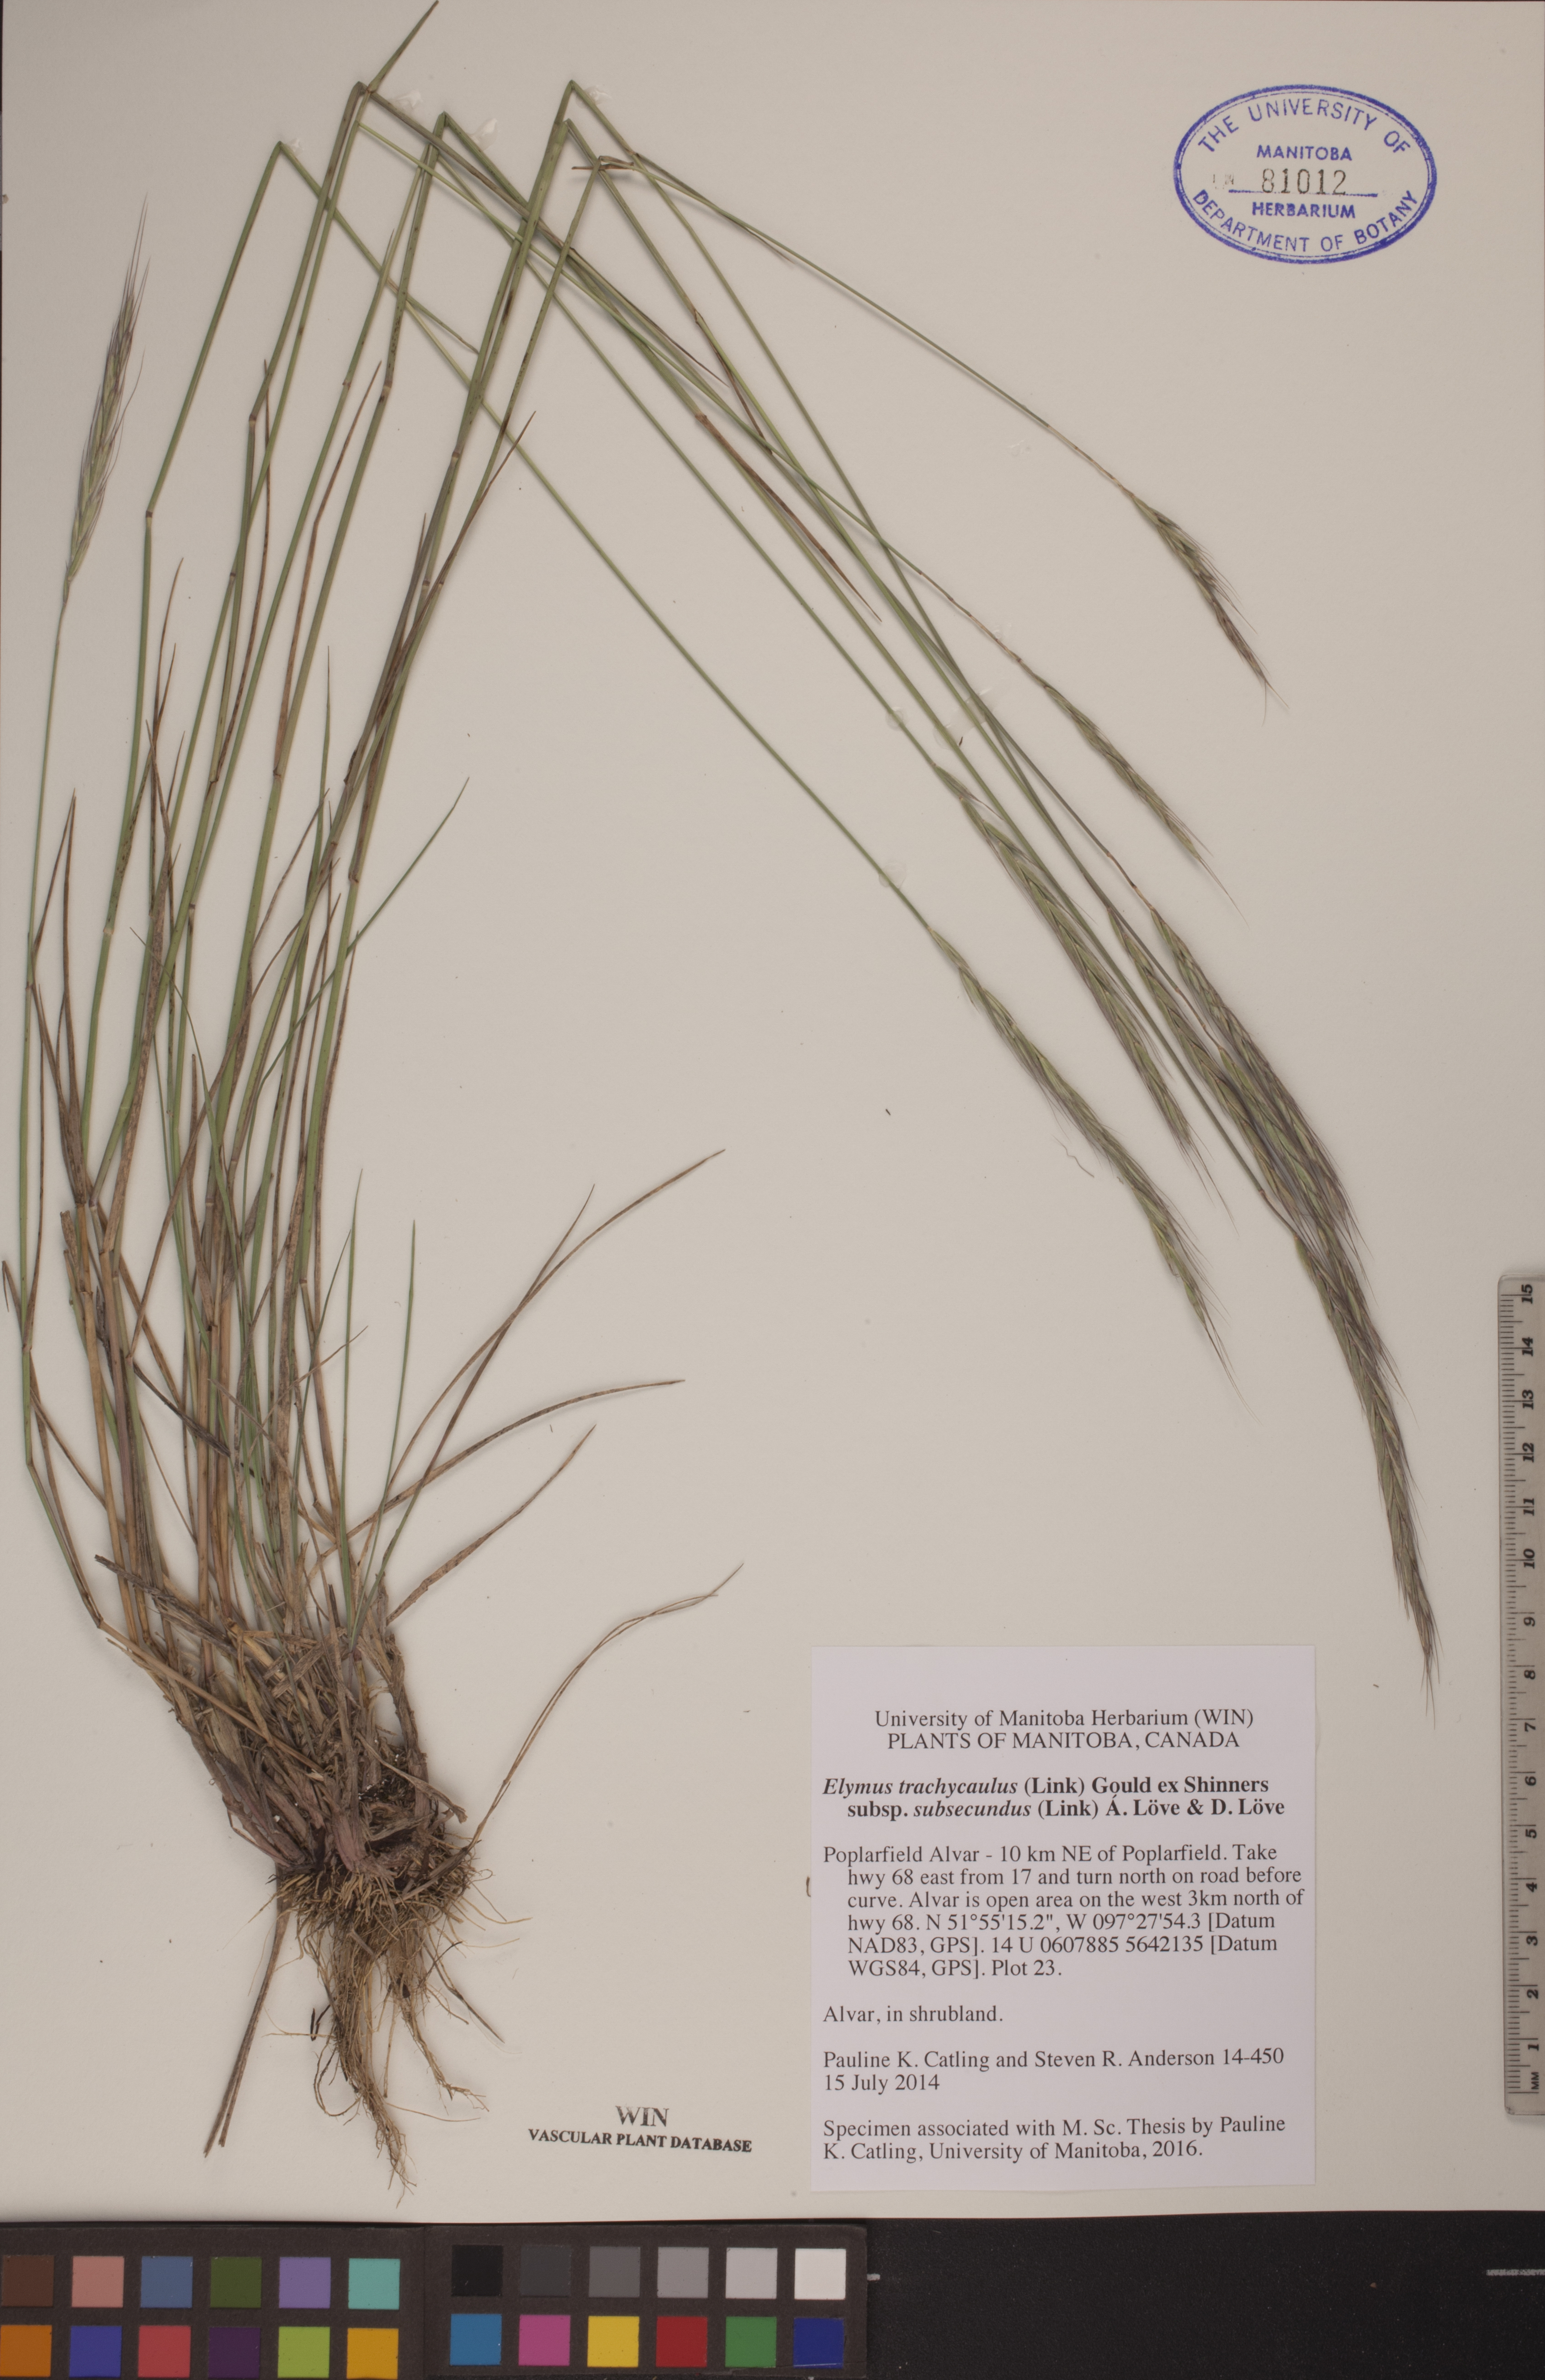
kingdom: Plantae
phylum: Tracheophyta
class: Liliopsida
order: Poales
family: Poaceae
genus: Elymus
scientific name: Elymus violaceus
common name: Arctic wheatgrass
